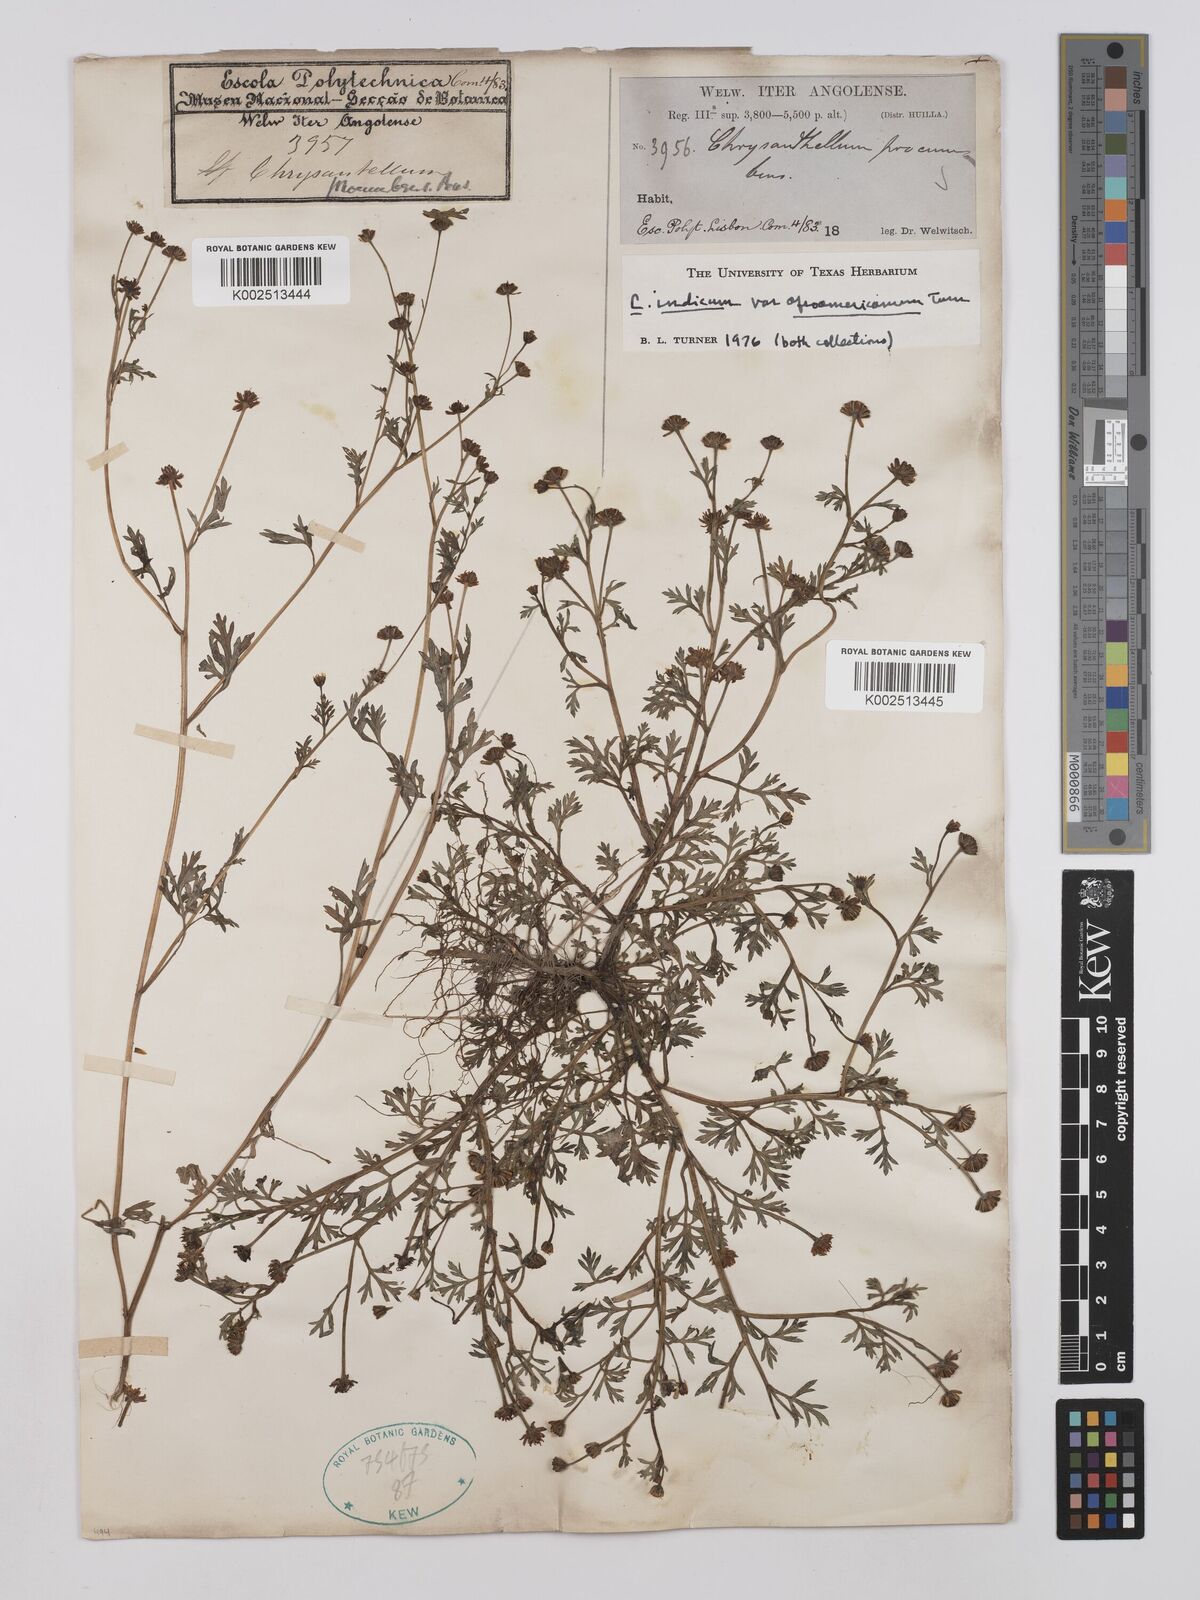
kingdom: Plantae
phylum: Tracheophyta
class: Magnoliopsida
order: Asterales
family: Asteraceae
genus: Chrysanthellum
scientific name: Chrysanthellum indicum
